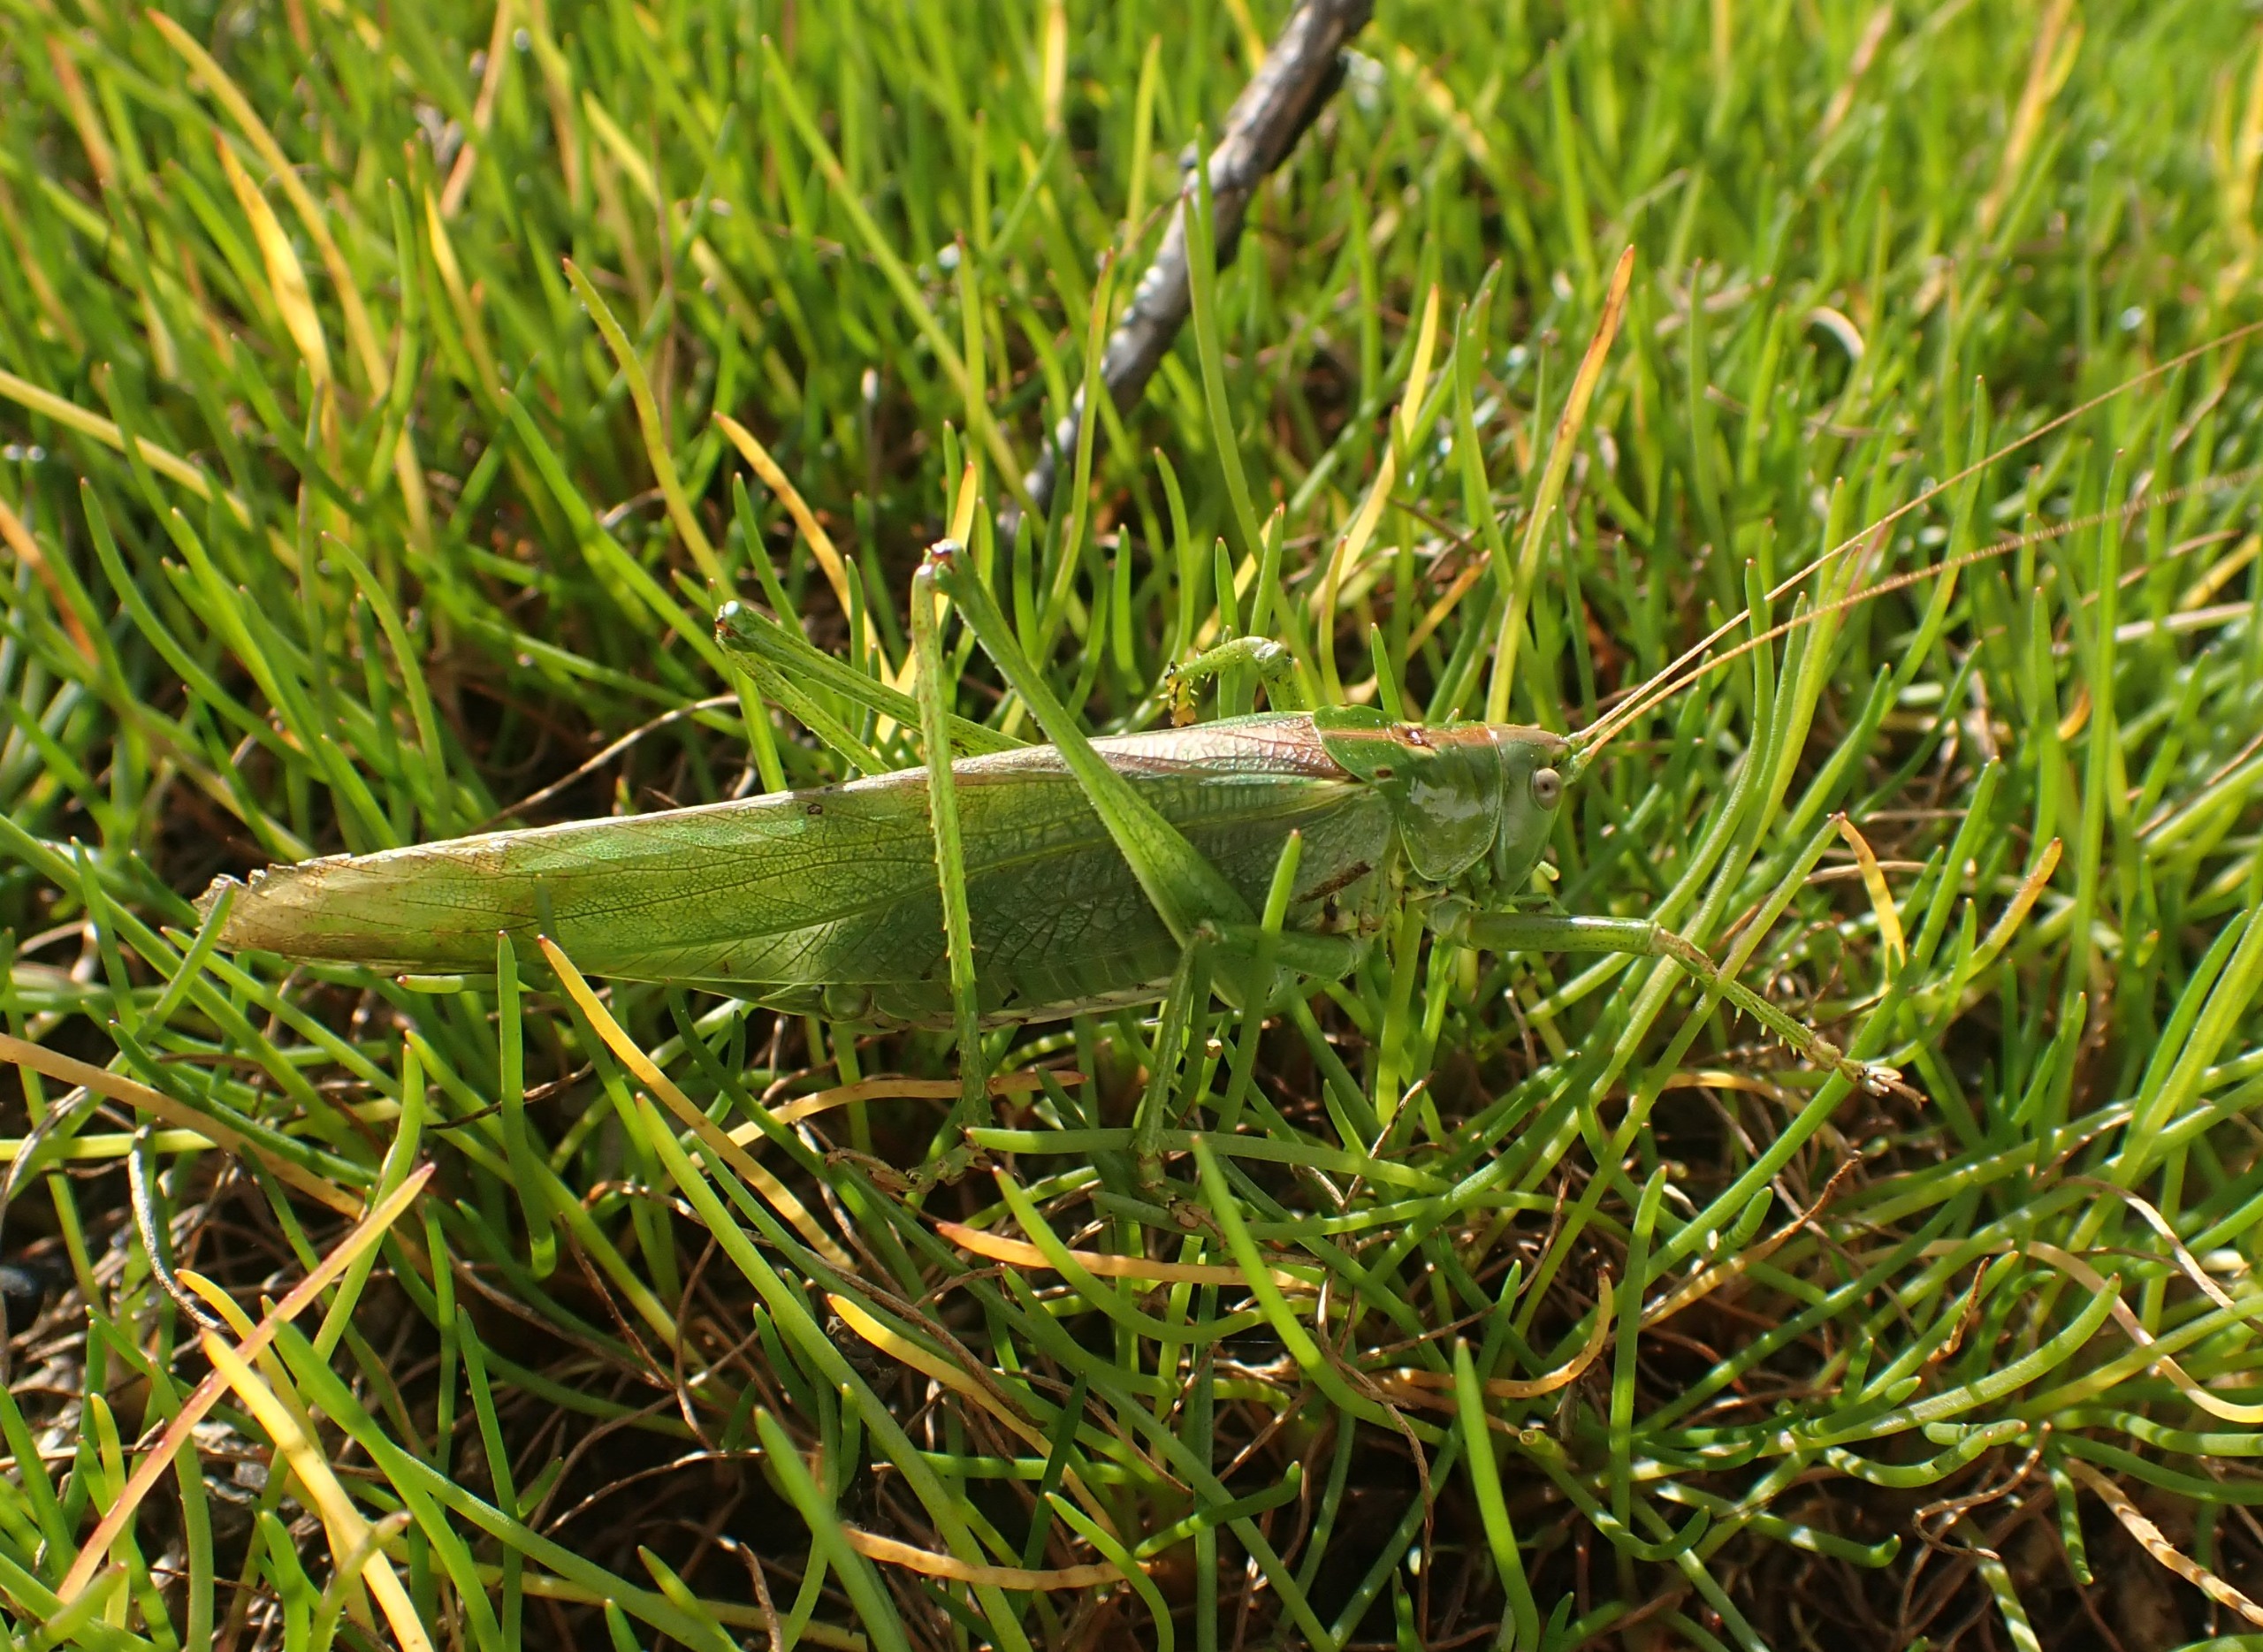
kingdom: Animalia
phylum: Arthropoda
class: Insecta
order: Orthoptera
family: Tettigoniidae
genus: Tettigonia
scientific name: Tettigonia viridissima
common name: Stor grøn løvgræshoppe
